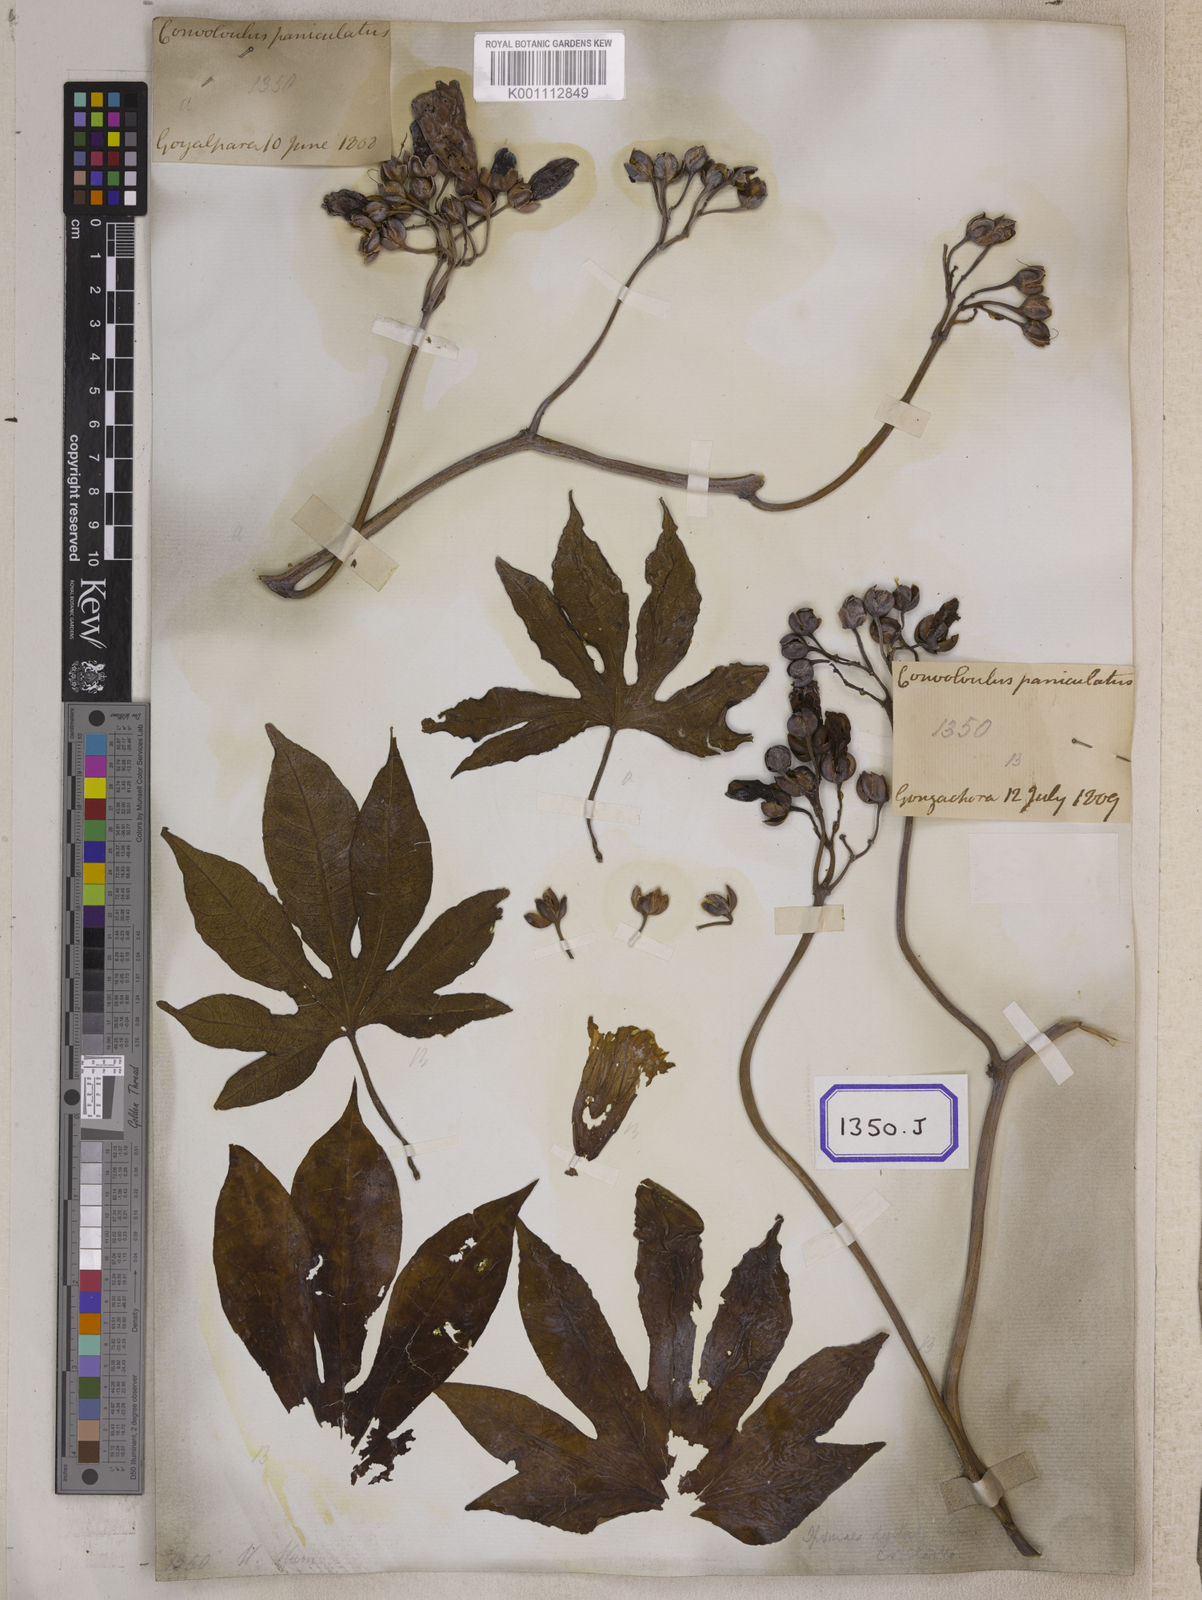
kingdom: Plantae
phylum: Tracheophyta
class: Magnoliopsida
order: Solanales
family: Convolvulaceae
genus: Ipomoea
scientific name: Ipomoea mauritiana
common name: Mauritanian convolvulus
